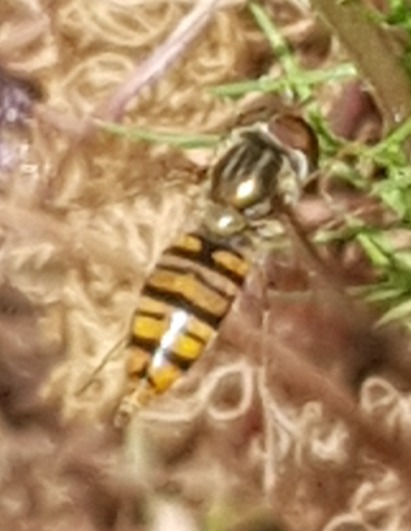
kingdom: Animalia
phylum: Arthropoda
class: Insecta
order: Diptera
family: Syrphidae
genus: Episyrphus
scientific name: Episyrphus balteatus
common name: Dobbeltbåndet svirreflue
